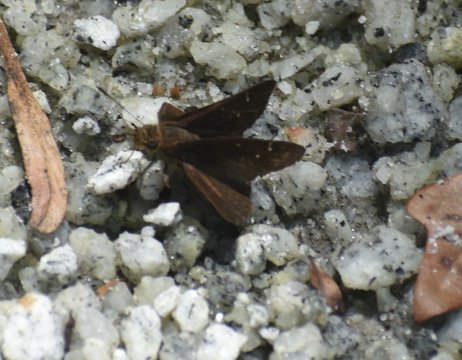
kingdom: Animalia
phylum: Arthropoda
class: Insecta
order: Lepidoptera
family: Hesperiidae
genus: Euphyes
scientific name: Euphyes vestris
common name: Dun Skipper
